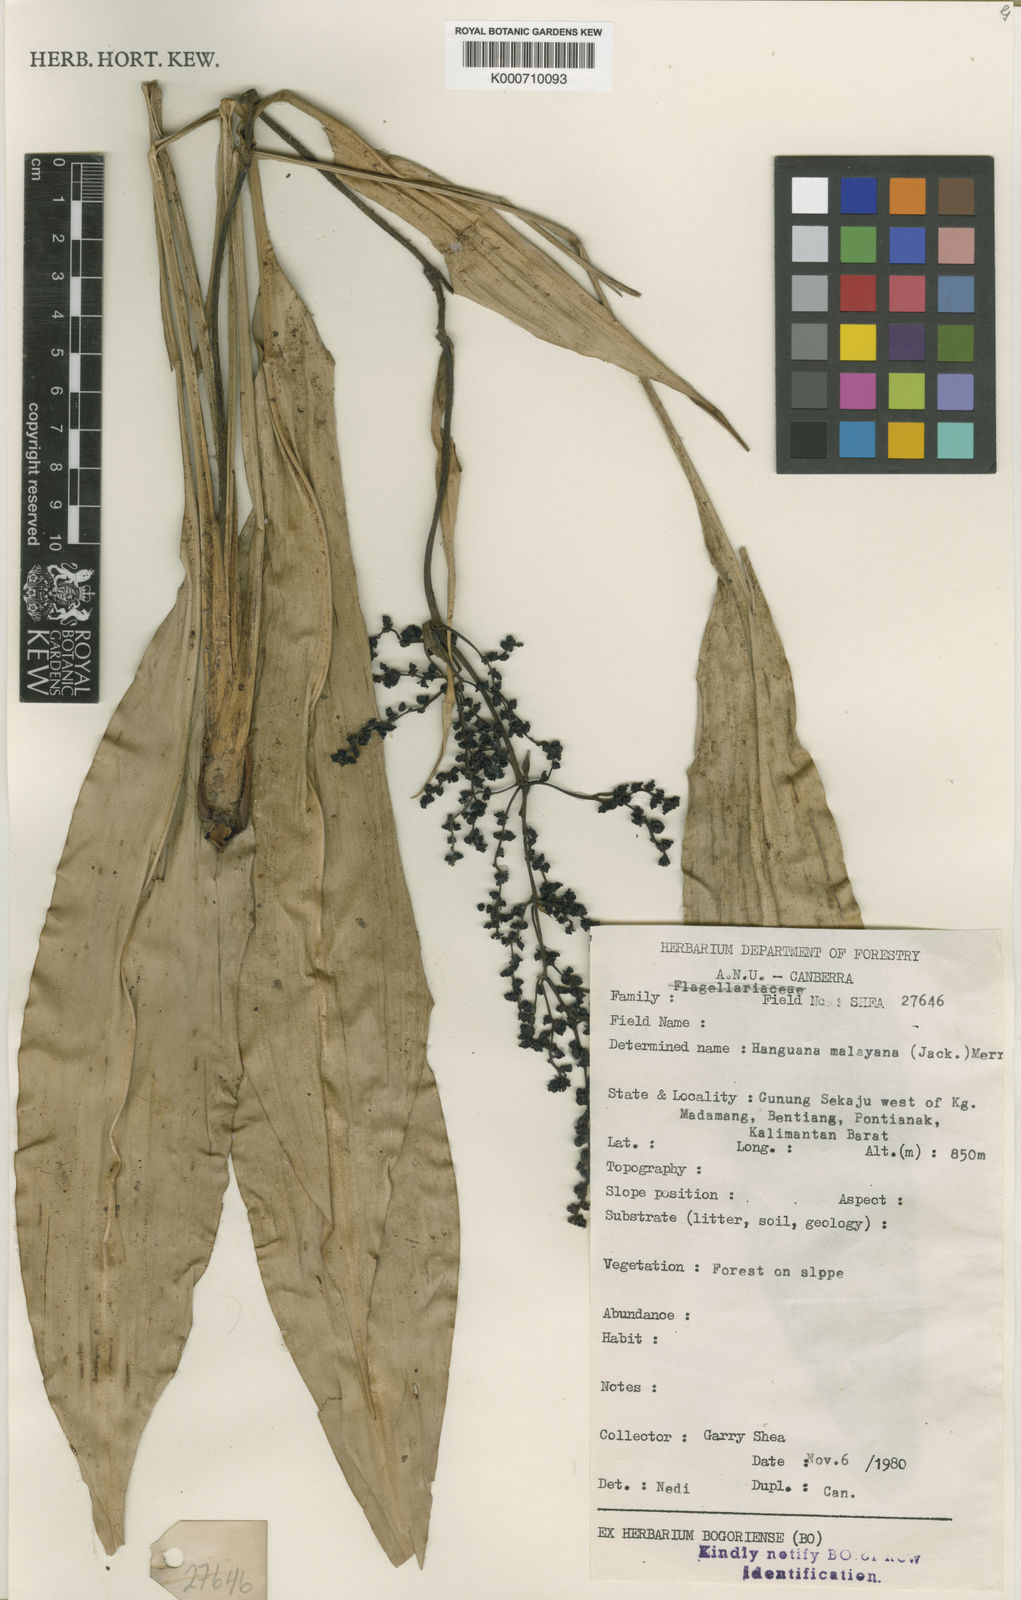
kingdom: Plantae
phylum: Tracheophyta
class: Liliopsida
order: Commelinales
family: Hanguanaceae
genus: Hanguana
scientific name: Hanguana malayana
